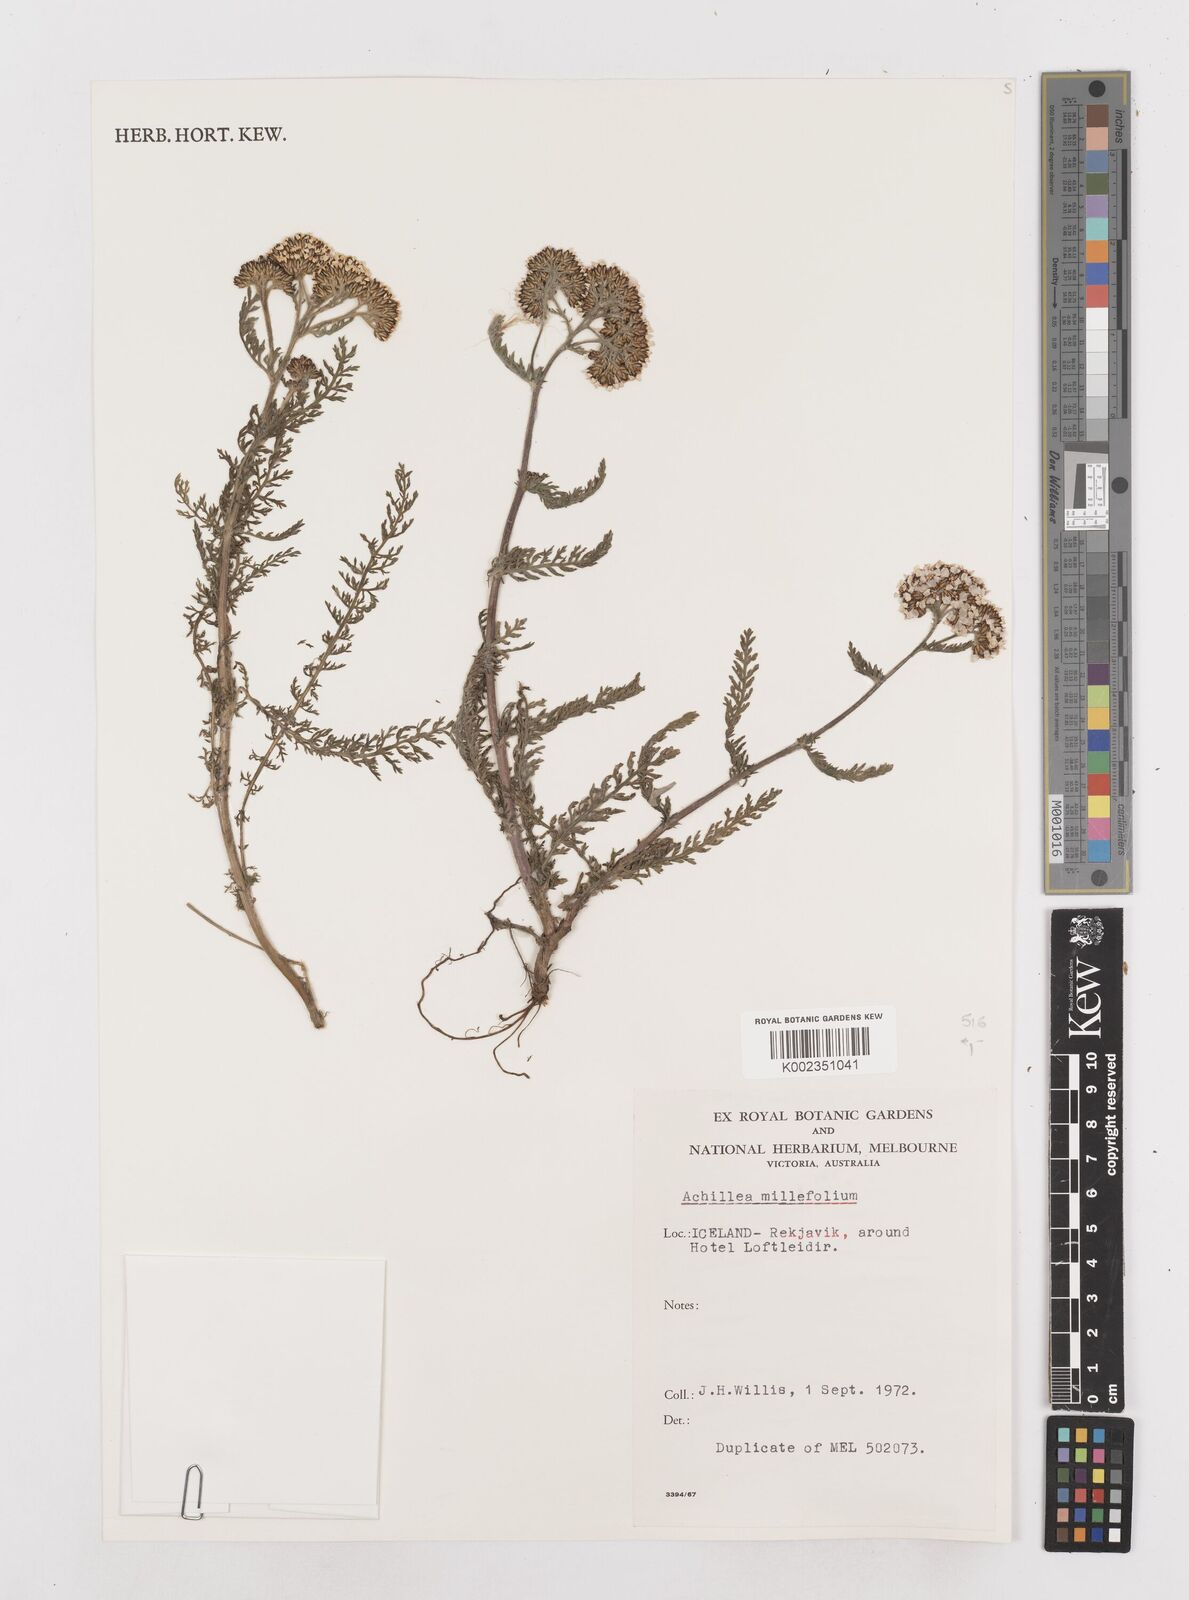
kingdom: Plantae
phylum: Tracheophyta
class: Magnoliopsida
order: Asterales
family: Asteraceae
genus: Achillea
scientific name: Achillea millefolium
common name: Yarrow
